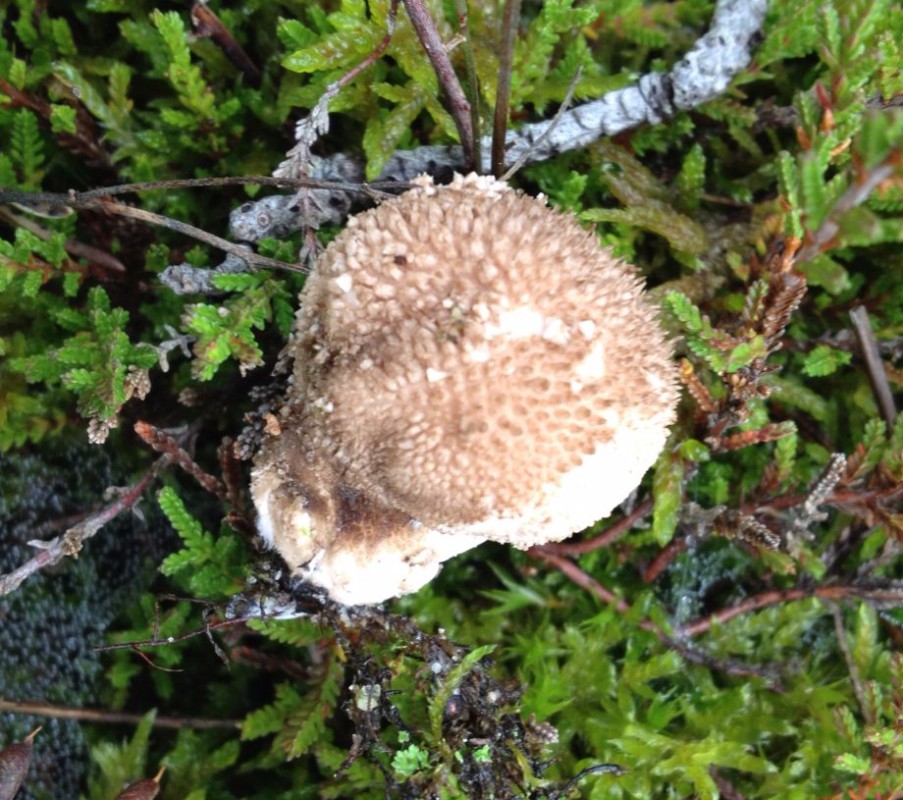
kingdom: Fungi
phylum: Basidiomycota
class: Agaricomycetes
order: Agaricales
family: Agaricaceae
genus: Lycoperdon
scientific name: Lycoperdon
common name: støvbold
